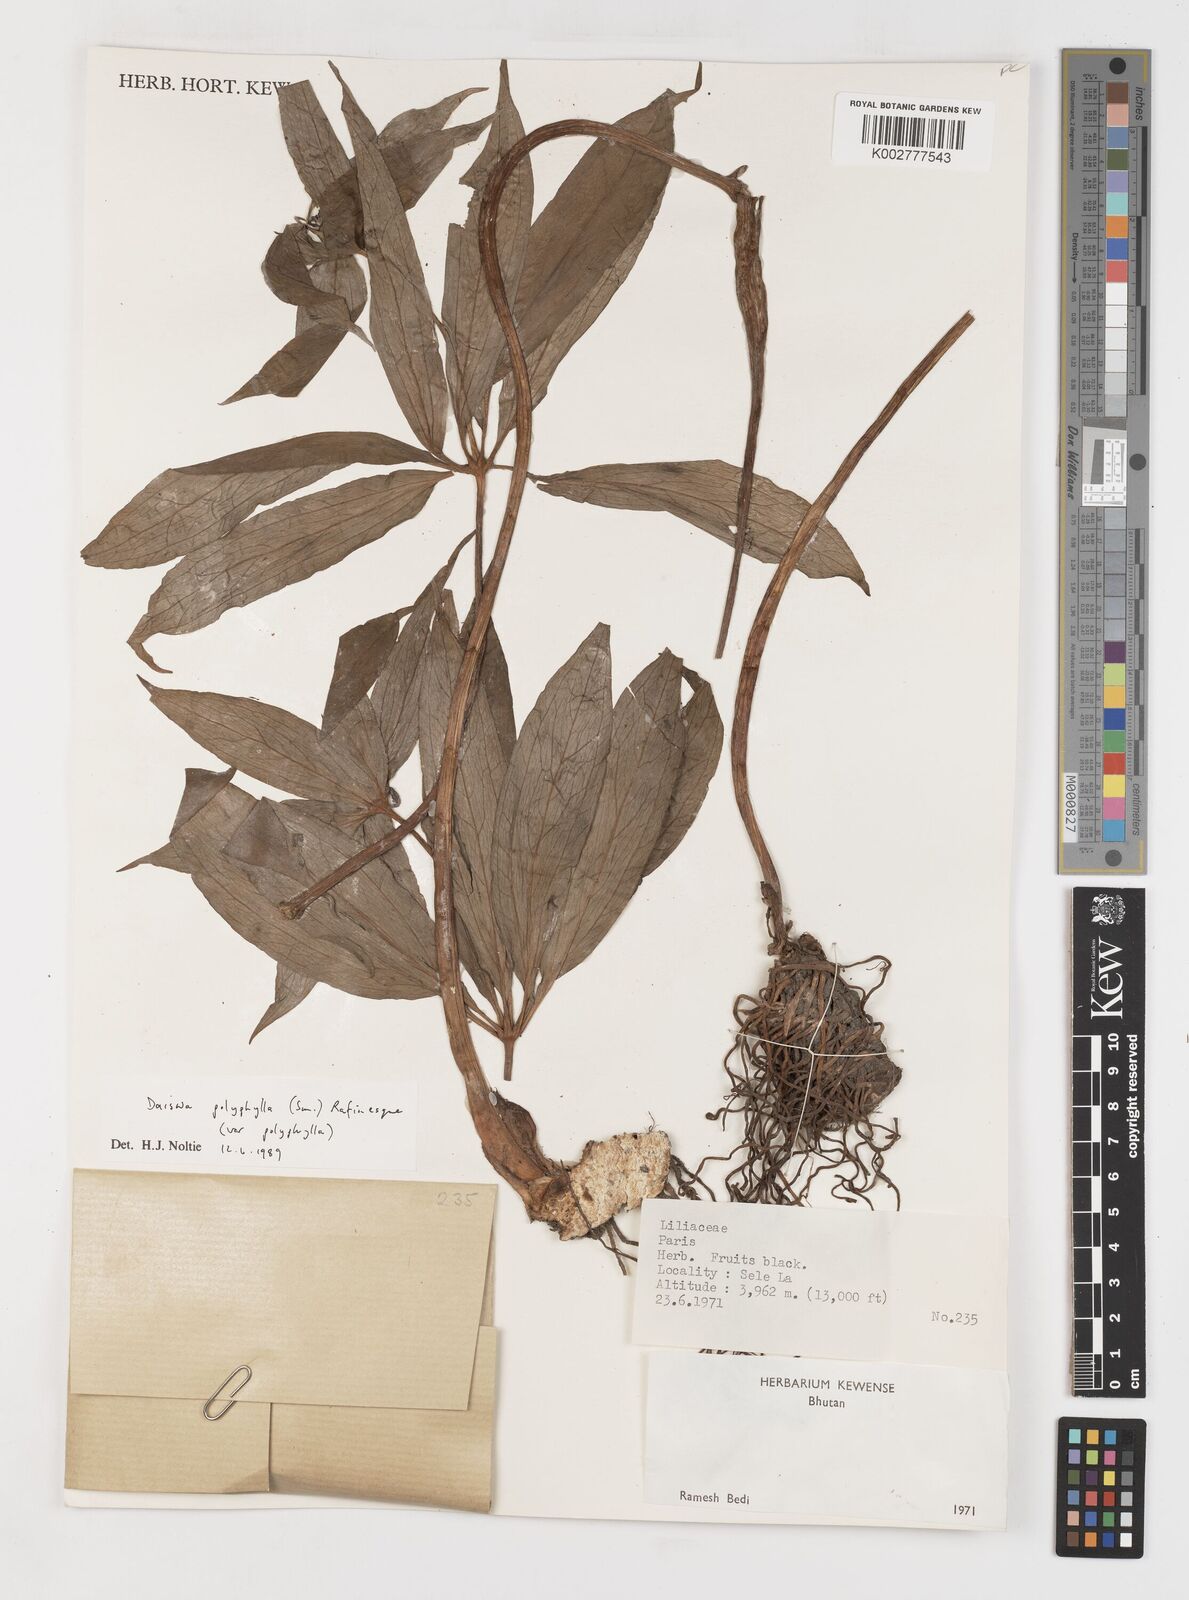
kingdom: Plantae
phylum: Tracheophyta
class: Liliopsida
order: Liliales
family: Melanthiaceae
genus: Paris
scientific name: Paris polyphylla
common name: Love apple
